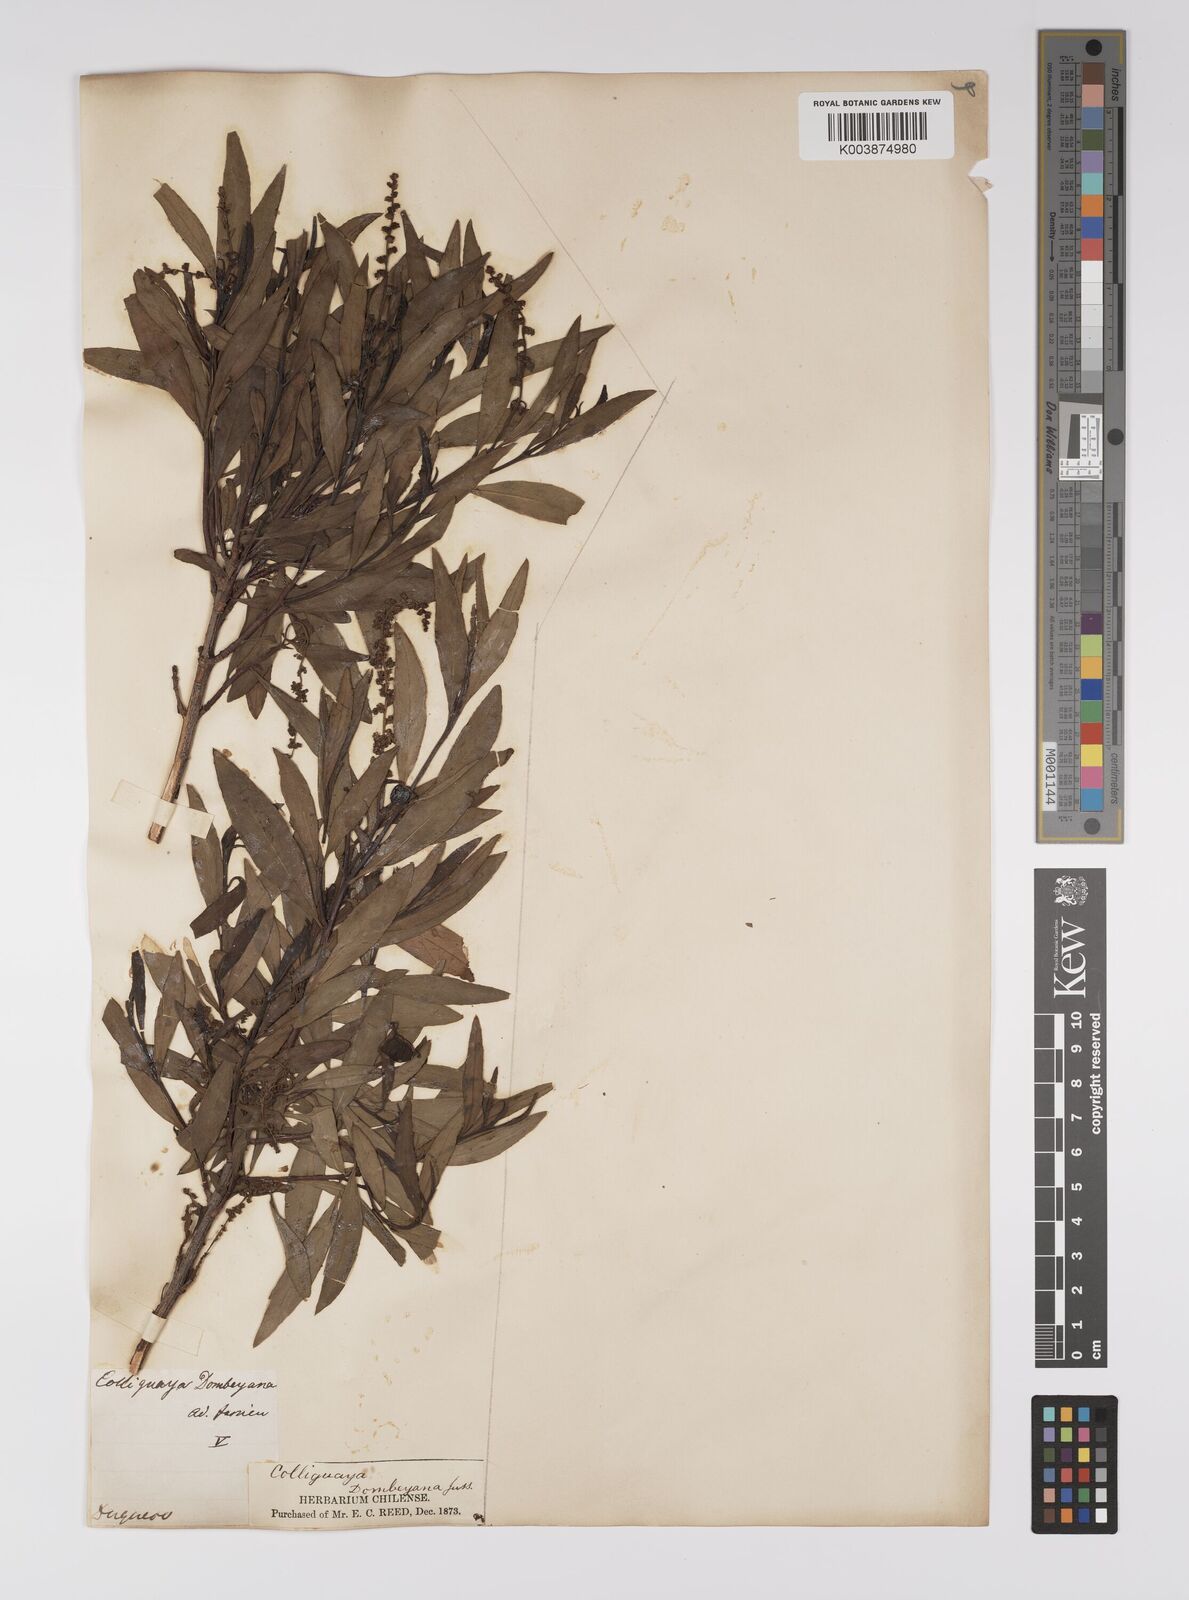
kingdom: Plantae
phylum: Tracheophyta
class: Magnoliopsida
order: Malpighiales
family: Euphorbiaceae
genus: Colliguaja
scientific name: Colliguaja dombeyana
